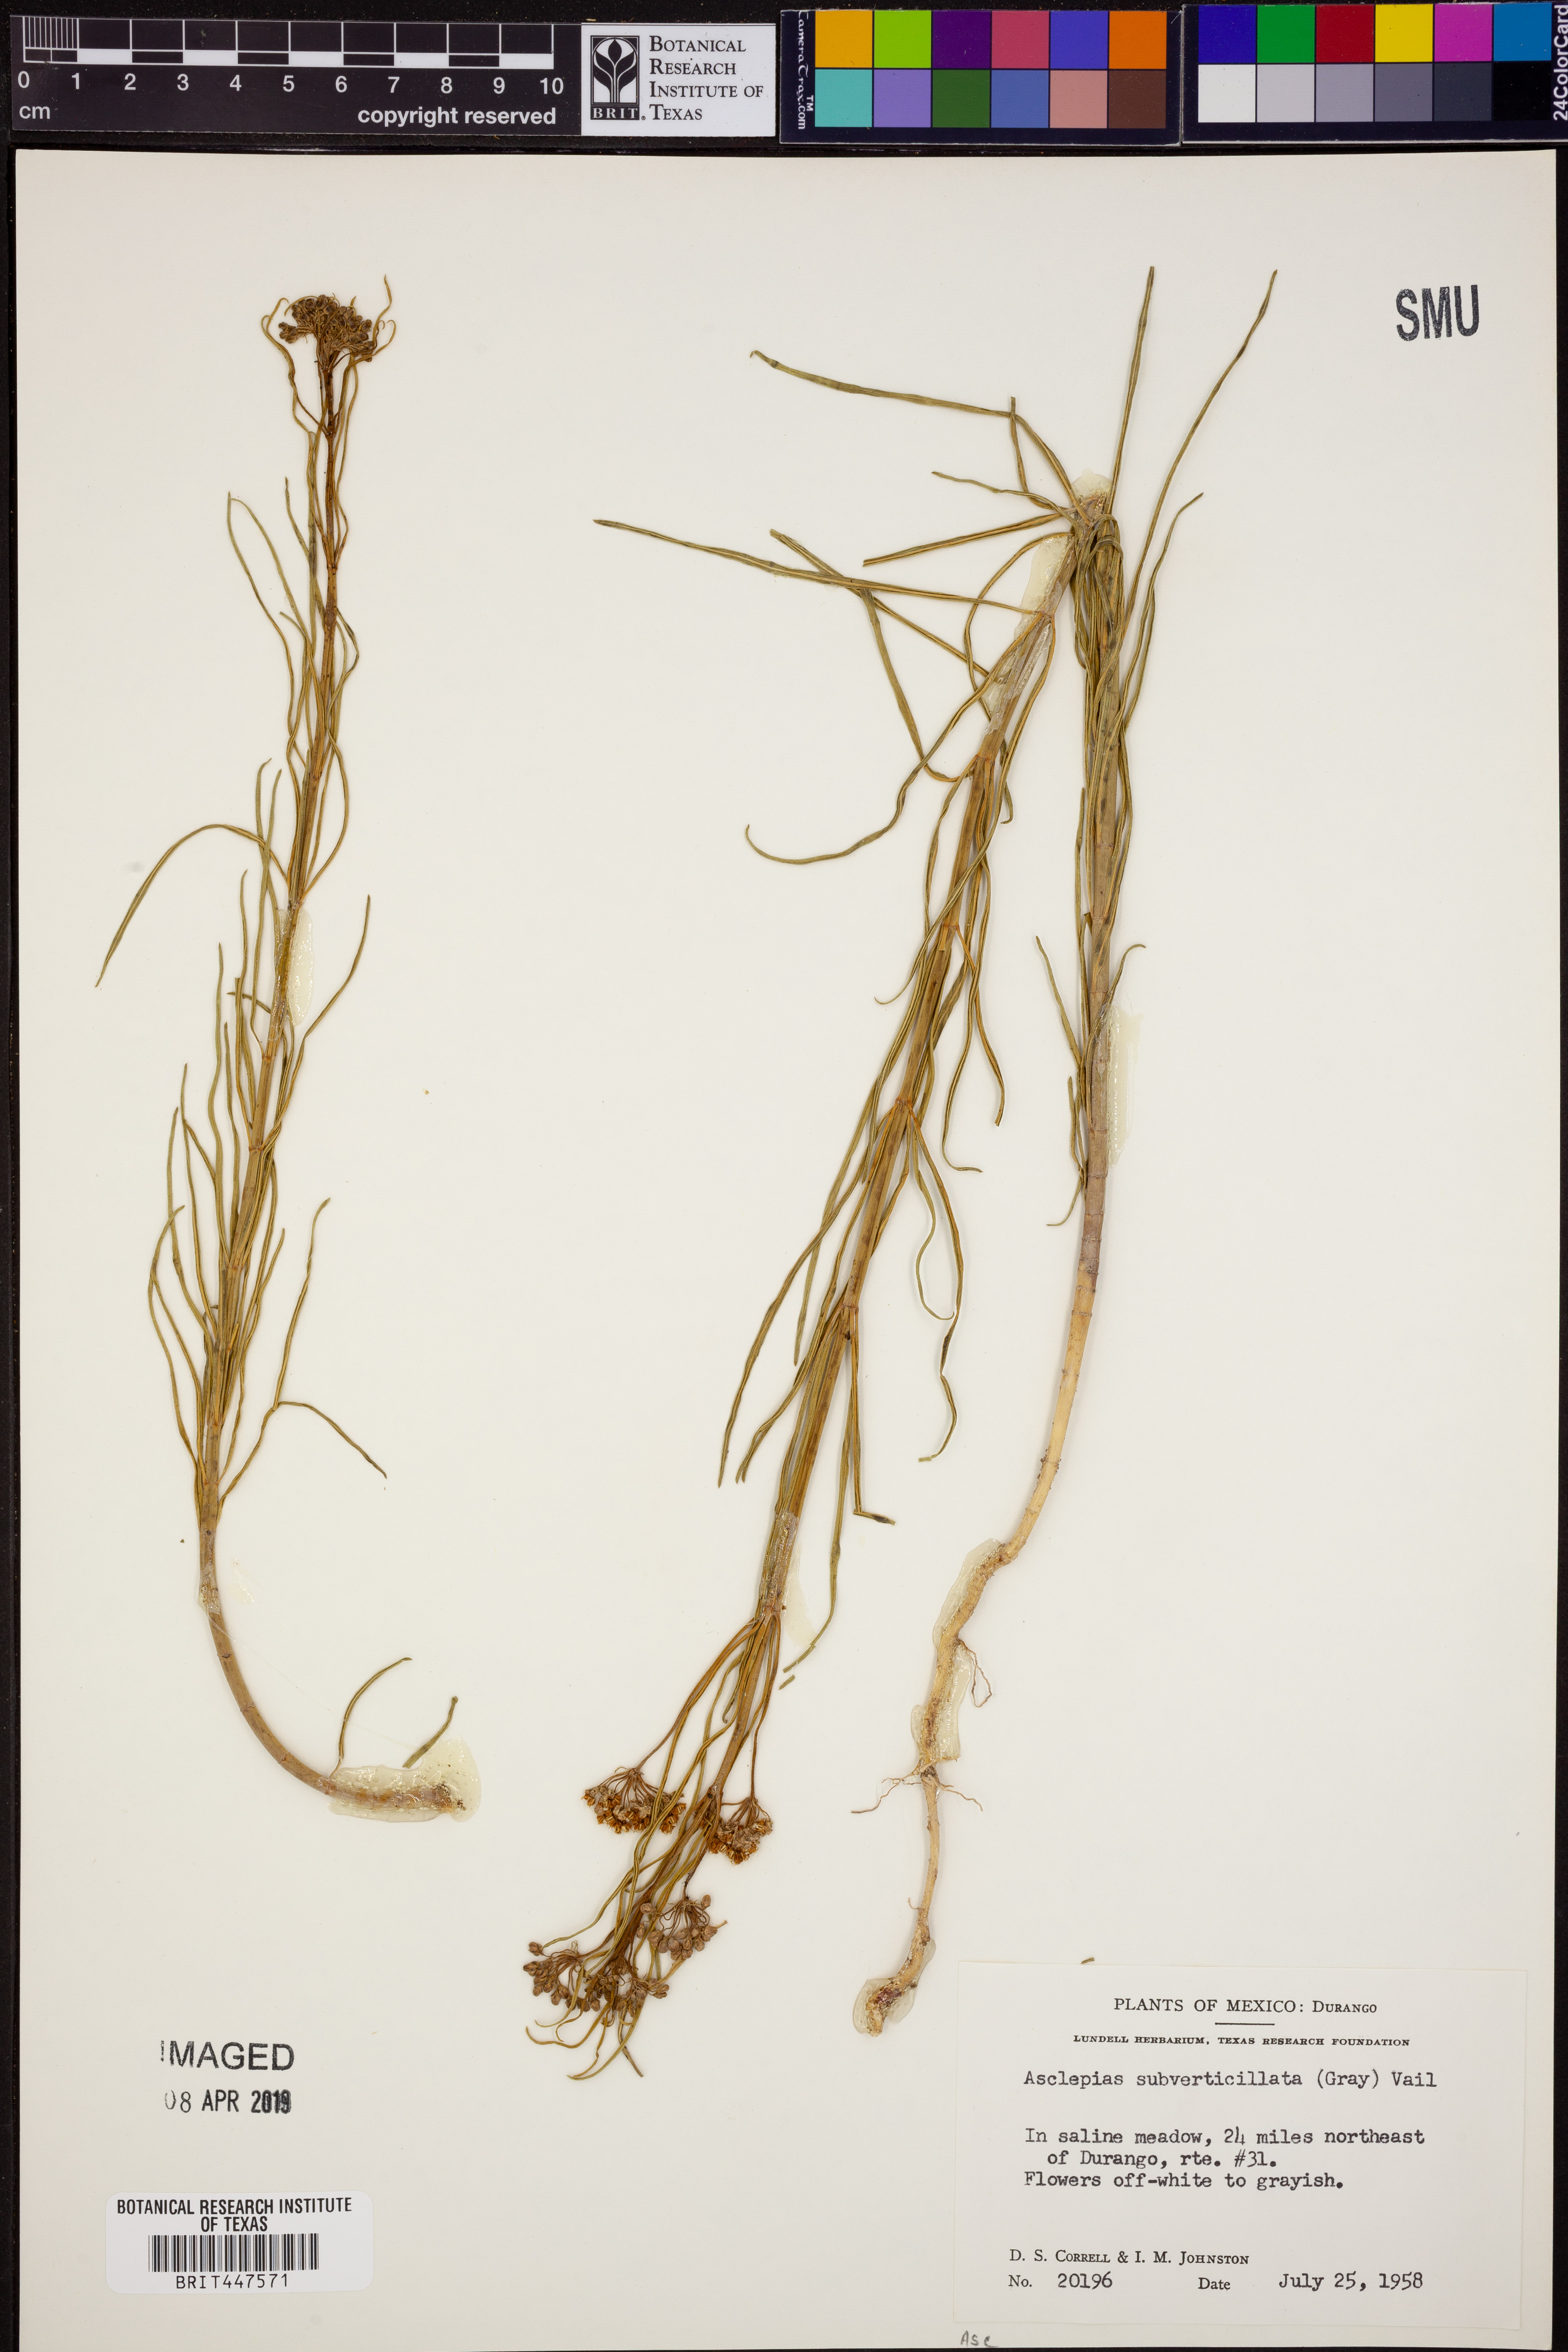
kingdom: Plantae
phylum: Tracheophyta
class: Magnoliopsida
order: Gentianales
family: Apocynaceae
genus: Asclepias
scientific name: Asclepias subverticillata
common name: Horsetail milkweed
